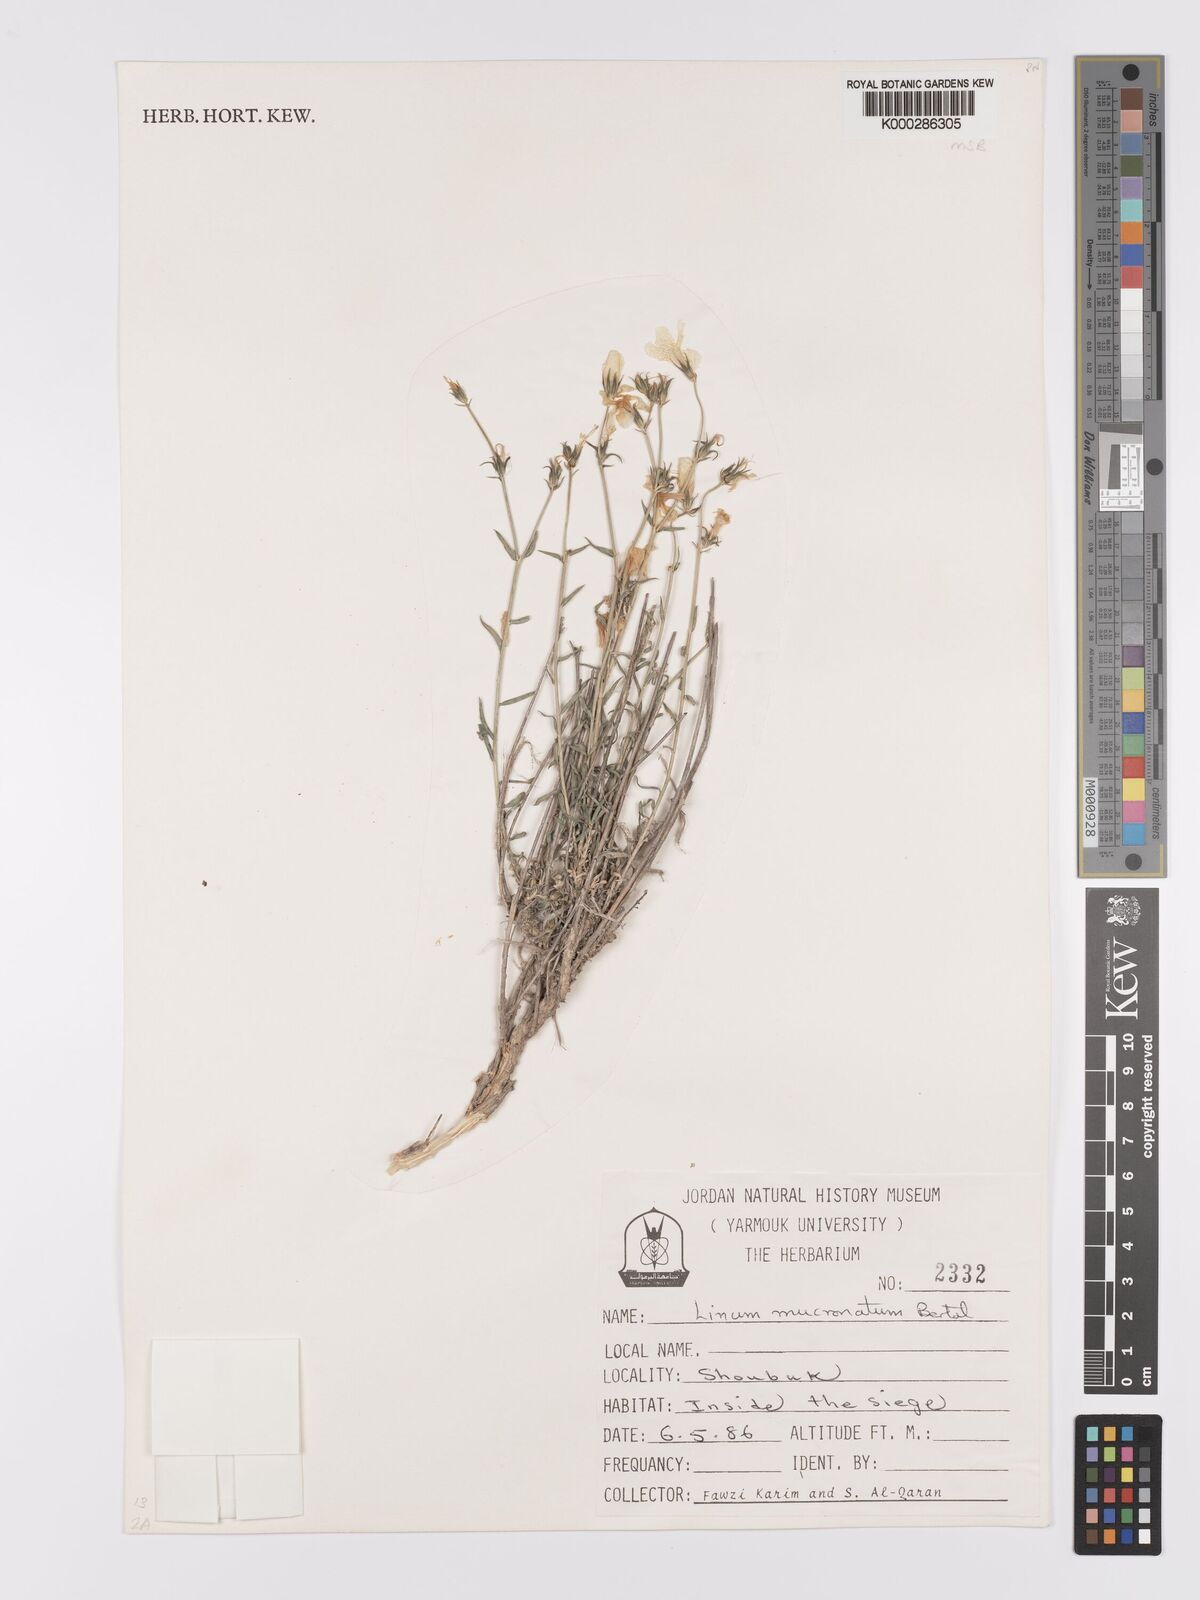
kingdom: Plantae
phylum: Tracheophyta
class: Magnoliopsida
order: Malpighiales
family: Linaceae
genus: Linum
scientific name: Linum mucronatum
